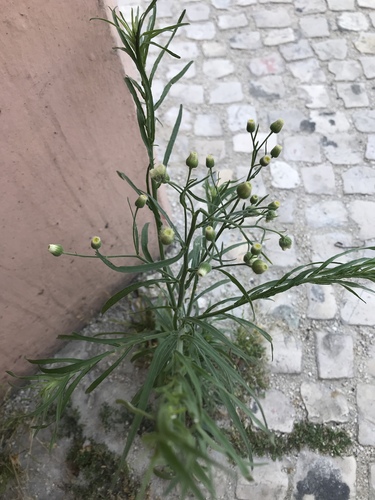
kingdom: Plantae
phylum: Tracheophyta
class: Magnoliopsida
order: Asterales
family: Asteraceae
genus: Erigeron
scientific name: Erigeron bonariensis
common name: Argentine fleabane
